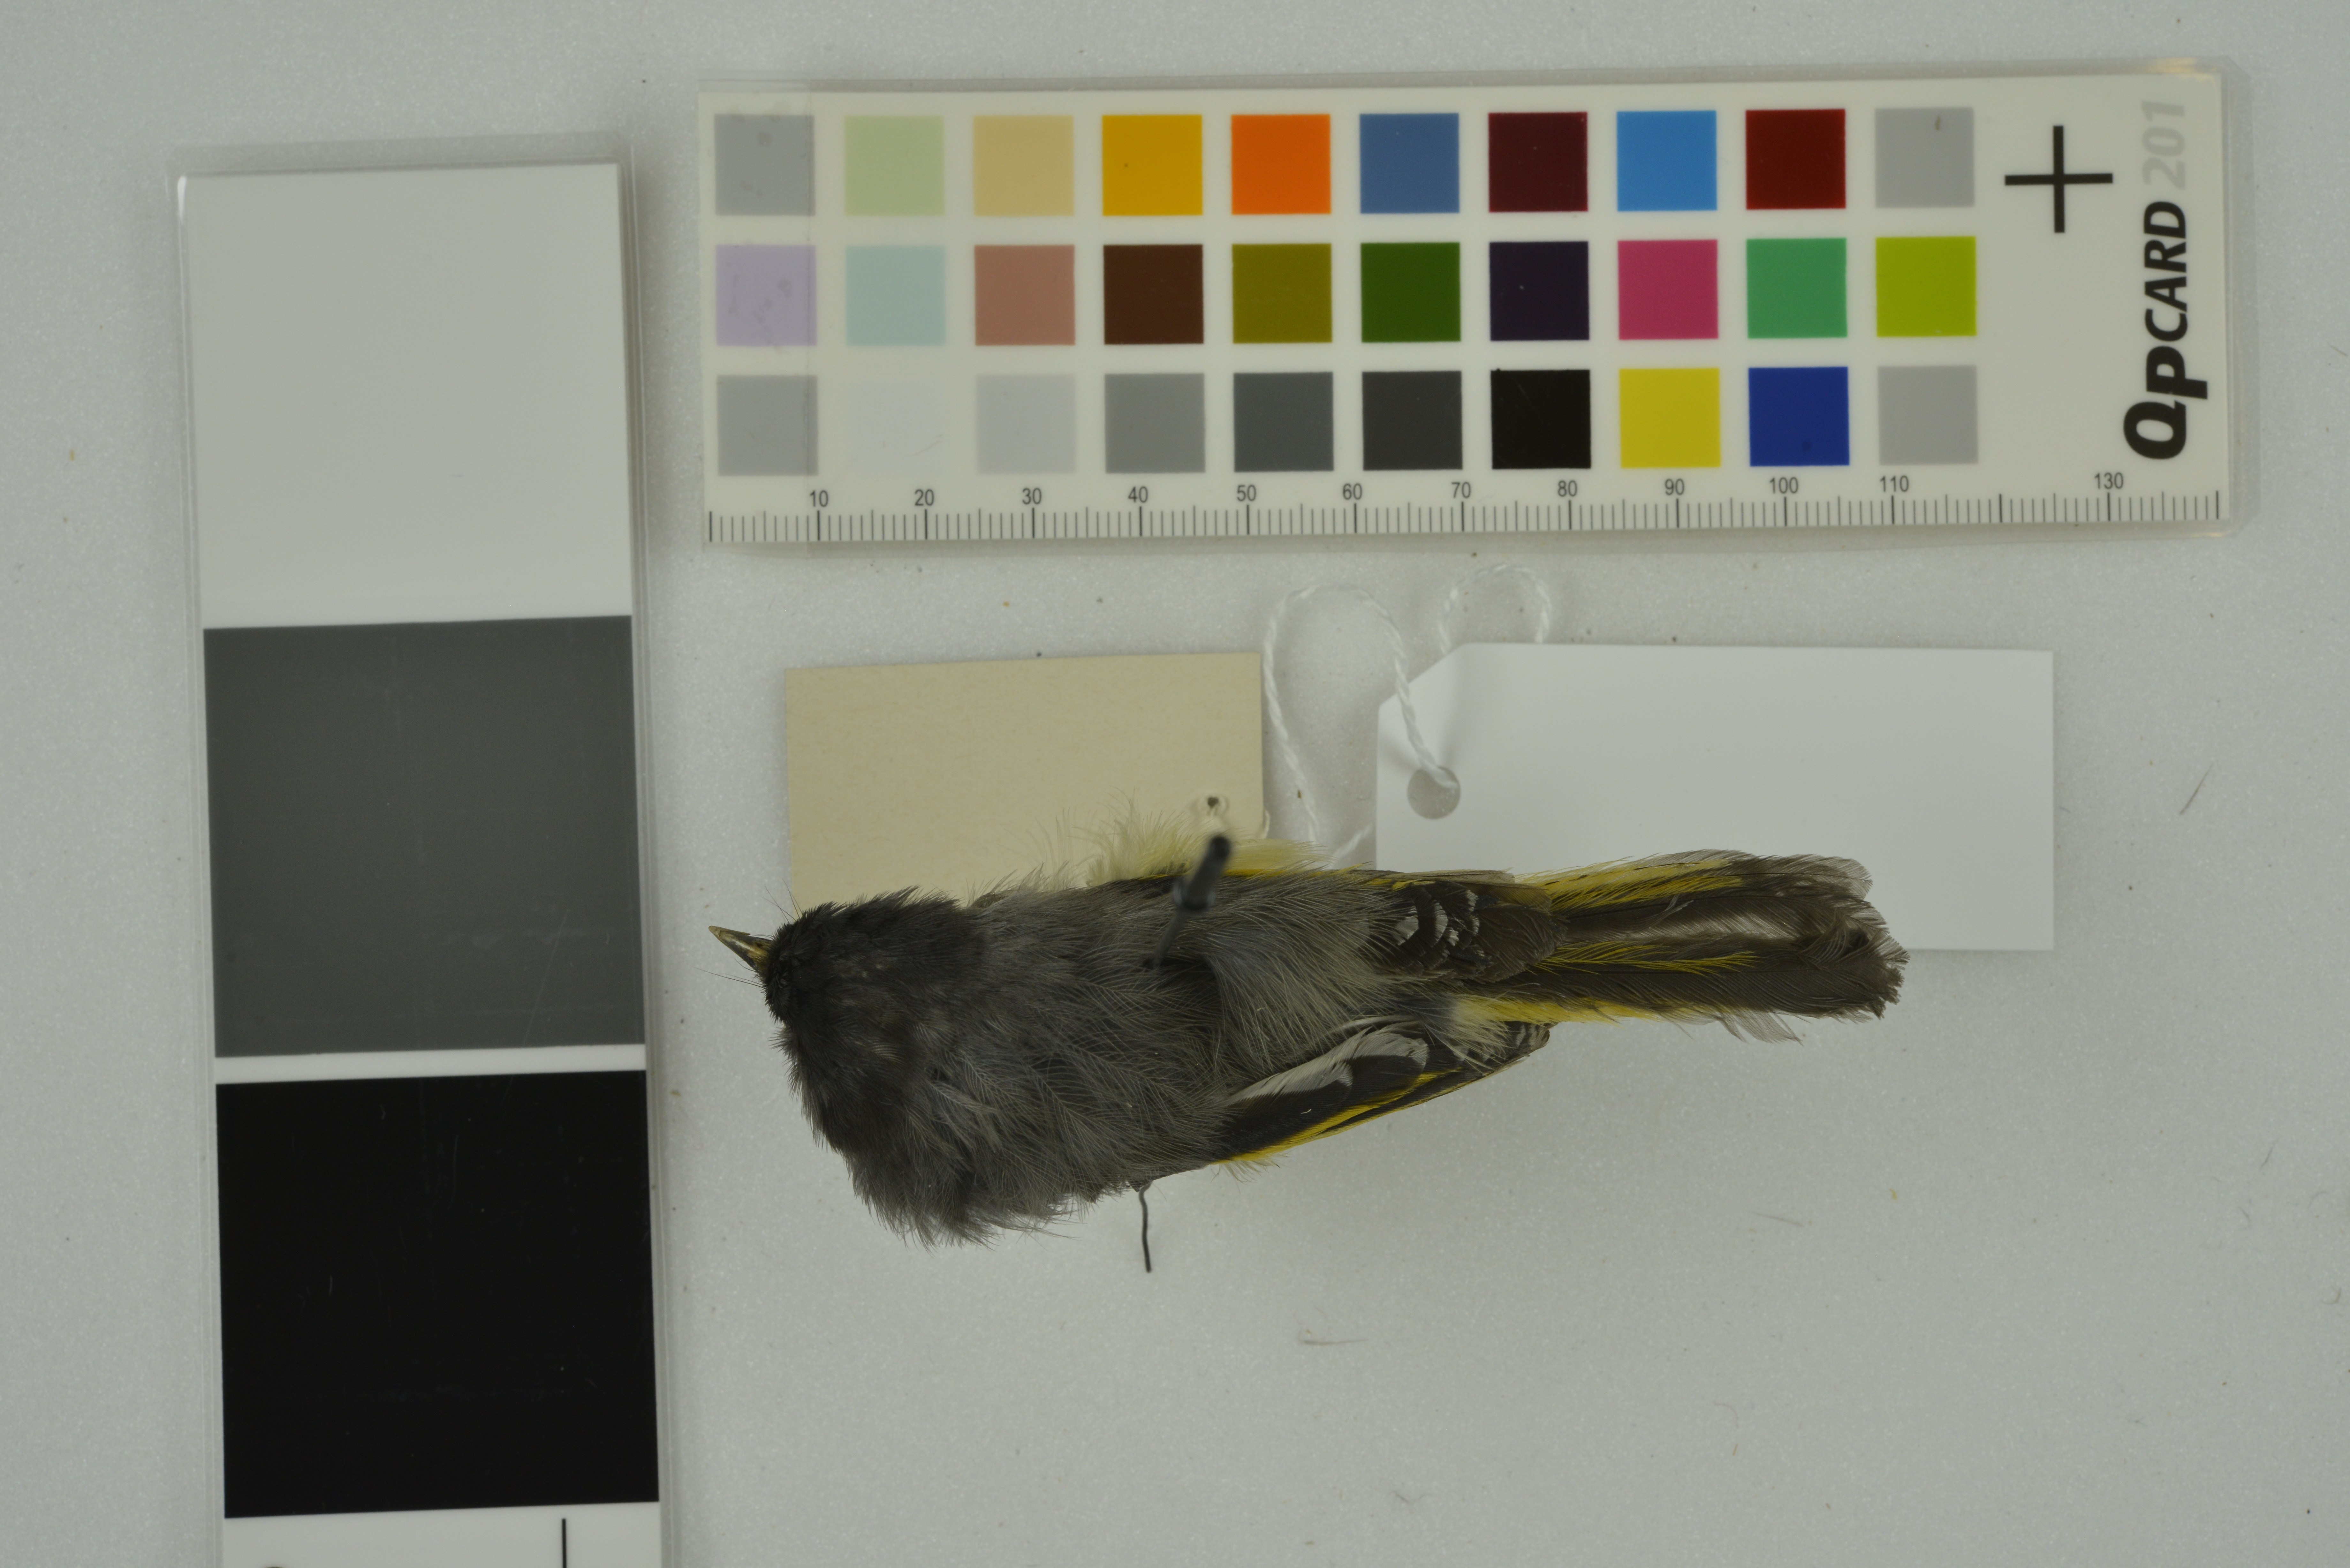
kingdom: Animalia
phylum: Chordata
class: Aves
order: Passeriformes
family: Sylviidae
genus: Lioparus
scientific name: Lioparus chrysotis
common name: Golden-breasted fulvetta
